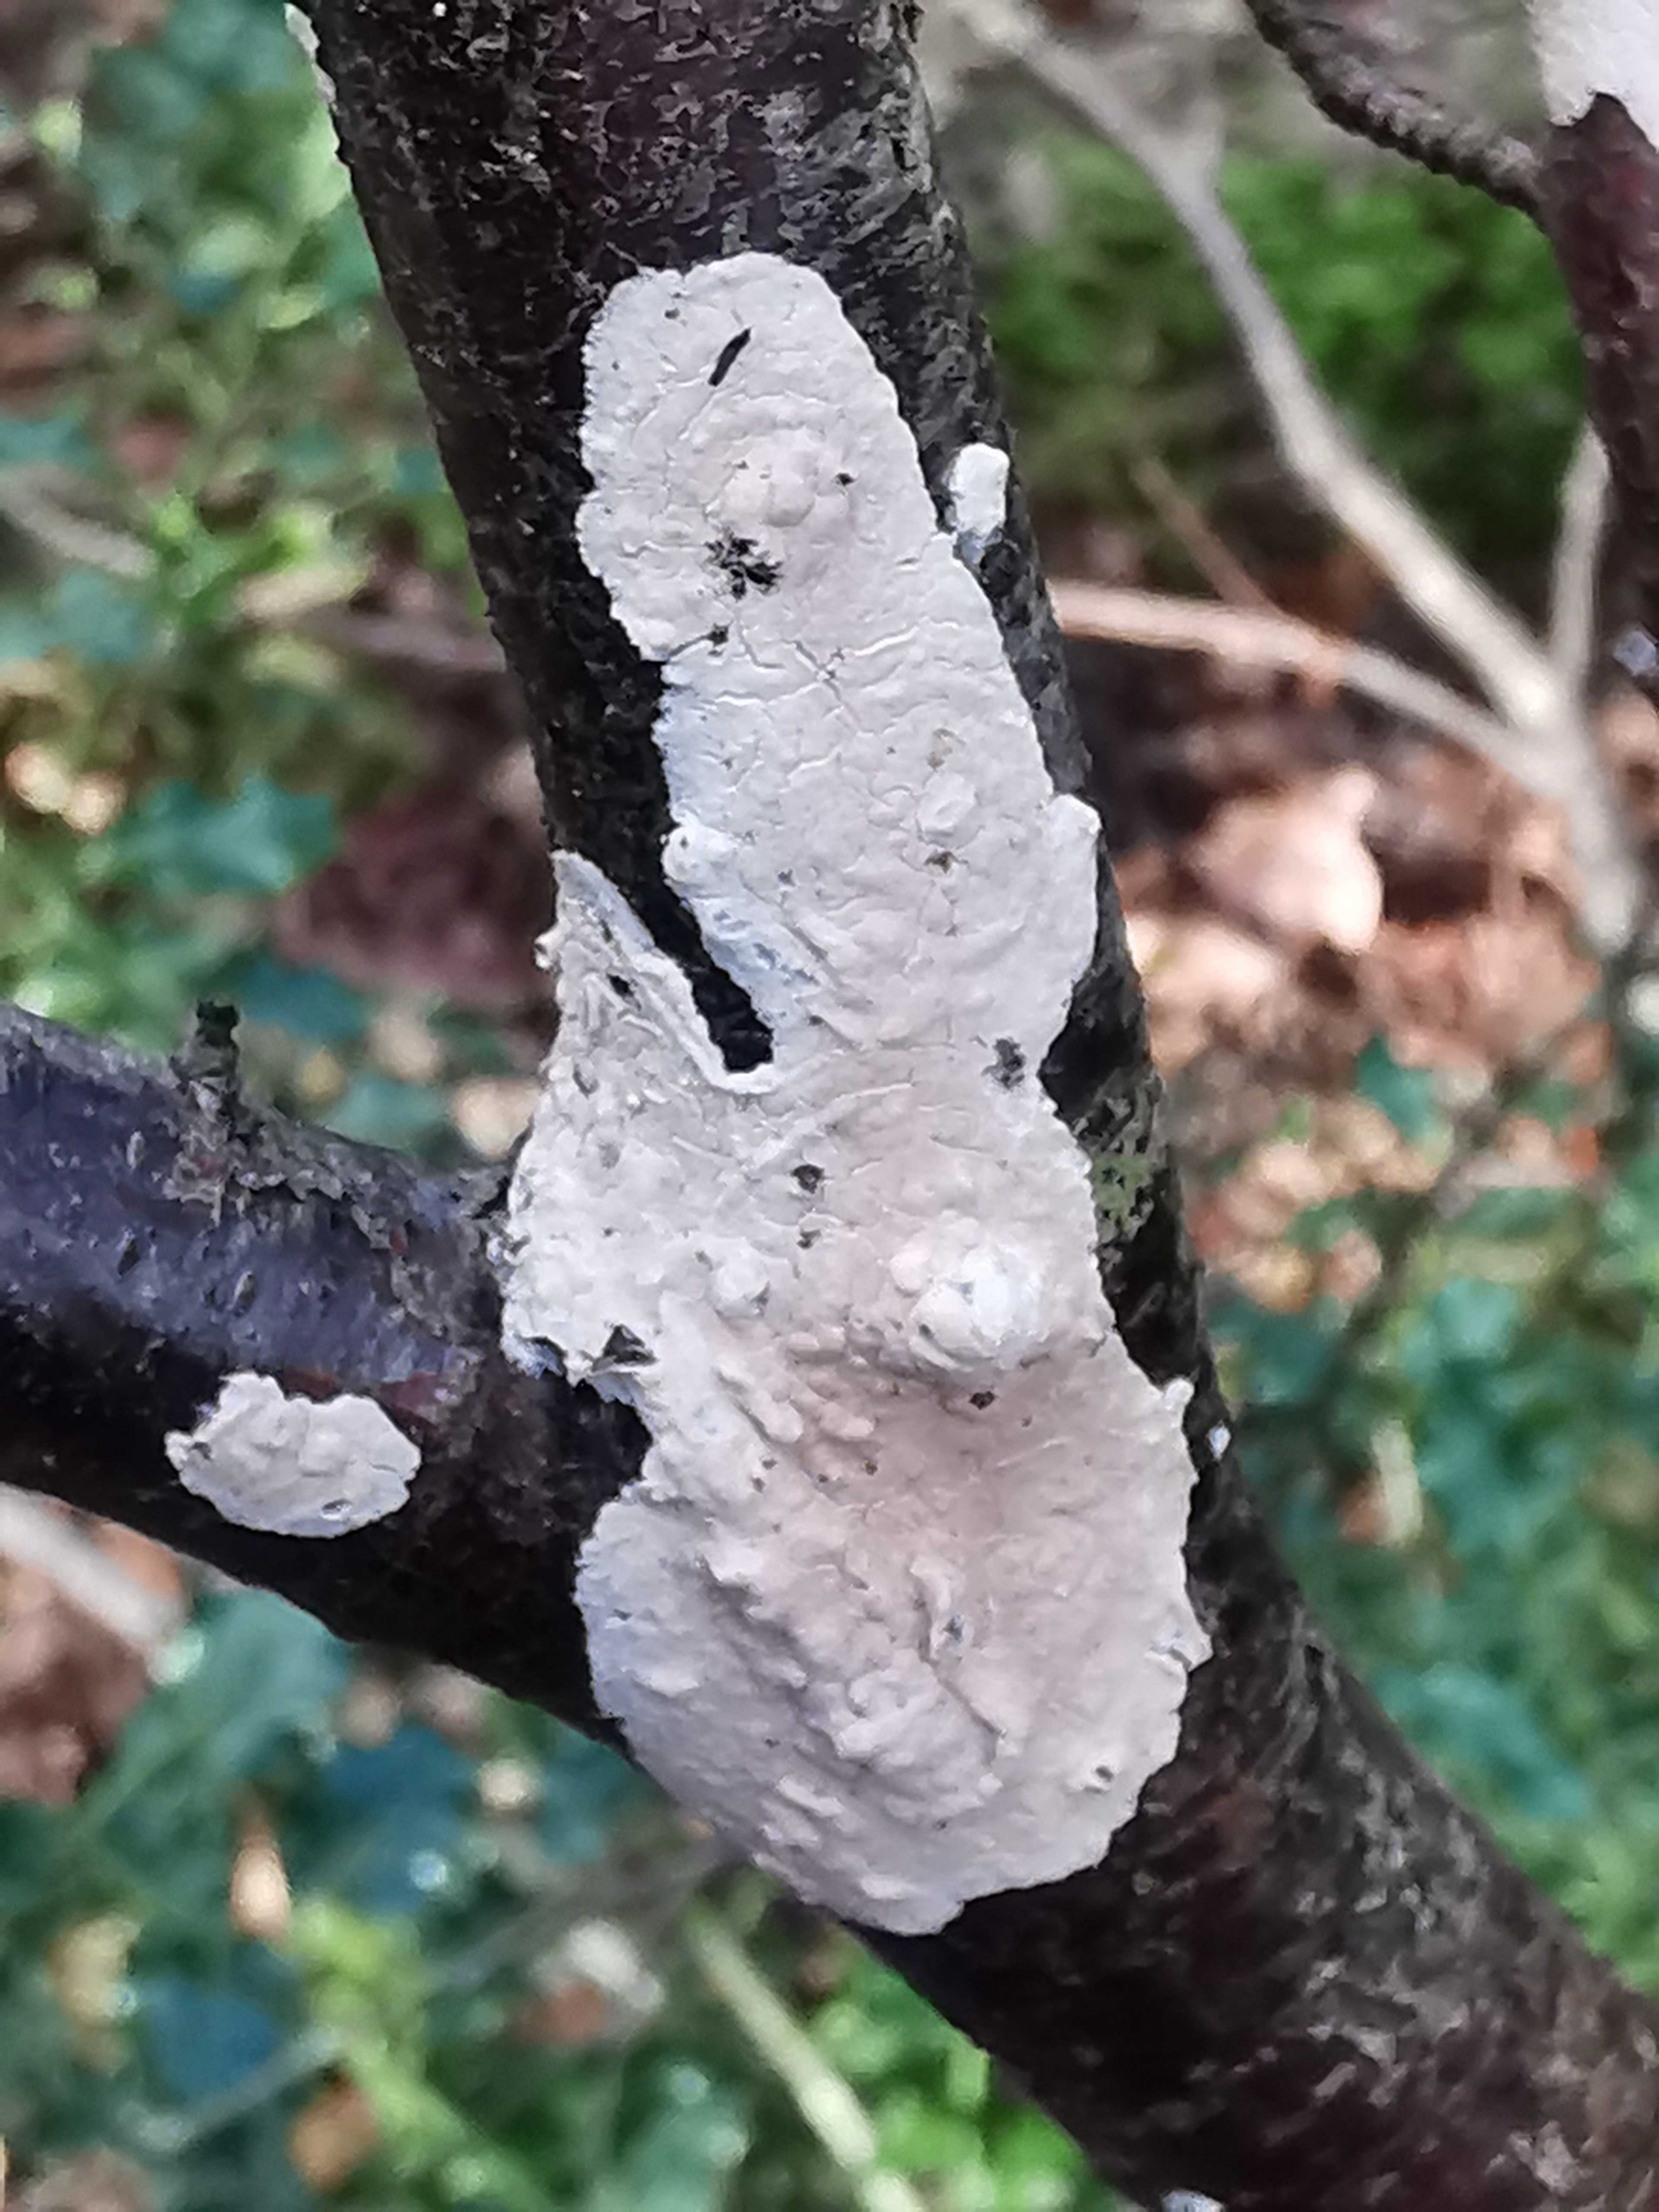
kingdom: Fungi
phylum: Basidiomycota
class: Agaricomycetes
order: Agaricales
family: Physalacriaceae
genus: Cylindrobasidium
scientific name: Cylindrobasidium evolvens
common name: sprækkehinde
